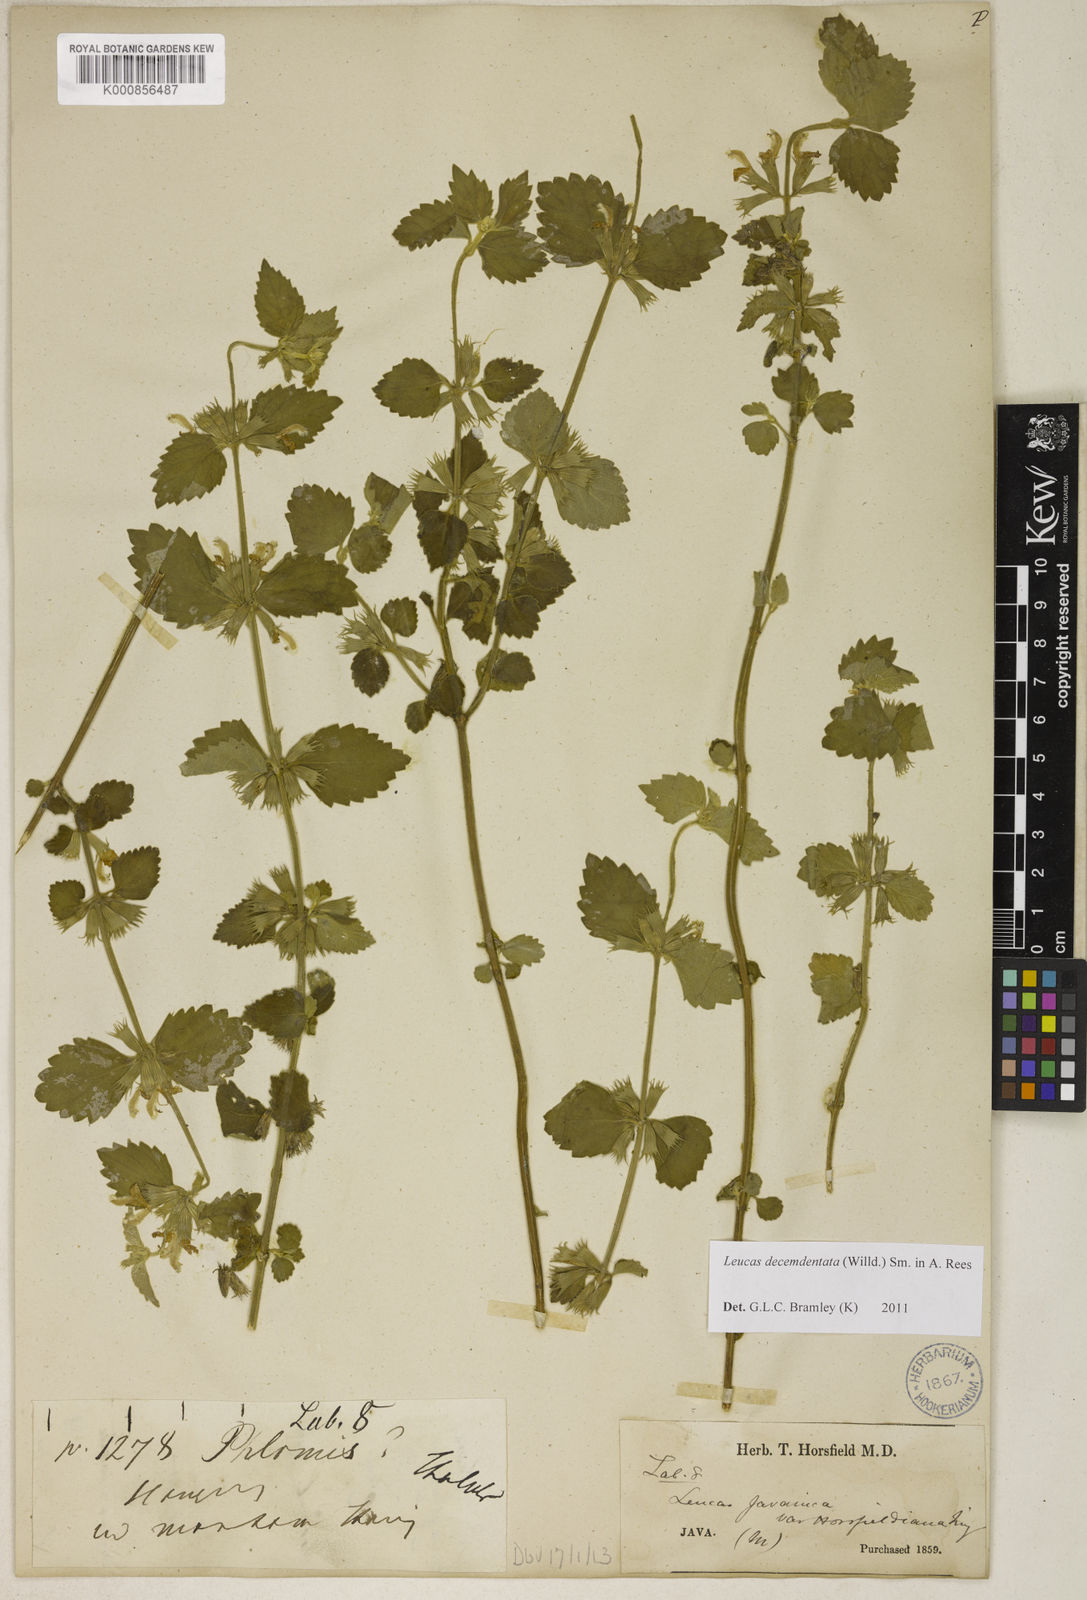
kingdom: Plantae
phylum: Tracheophyta
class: Magnoliopsida
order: Lamiales
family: Lamiaceae
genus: Leucas
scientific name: Leucas decemdentata
